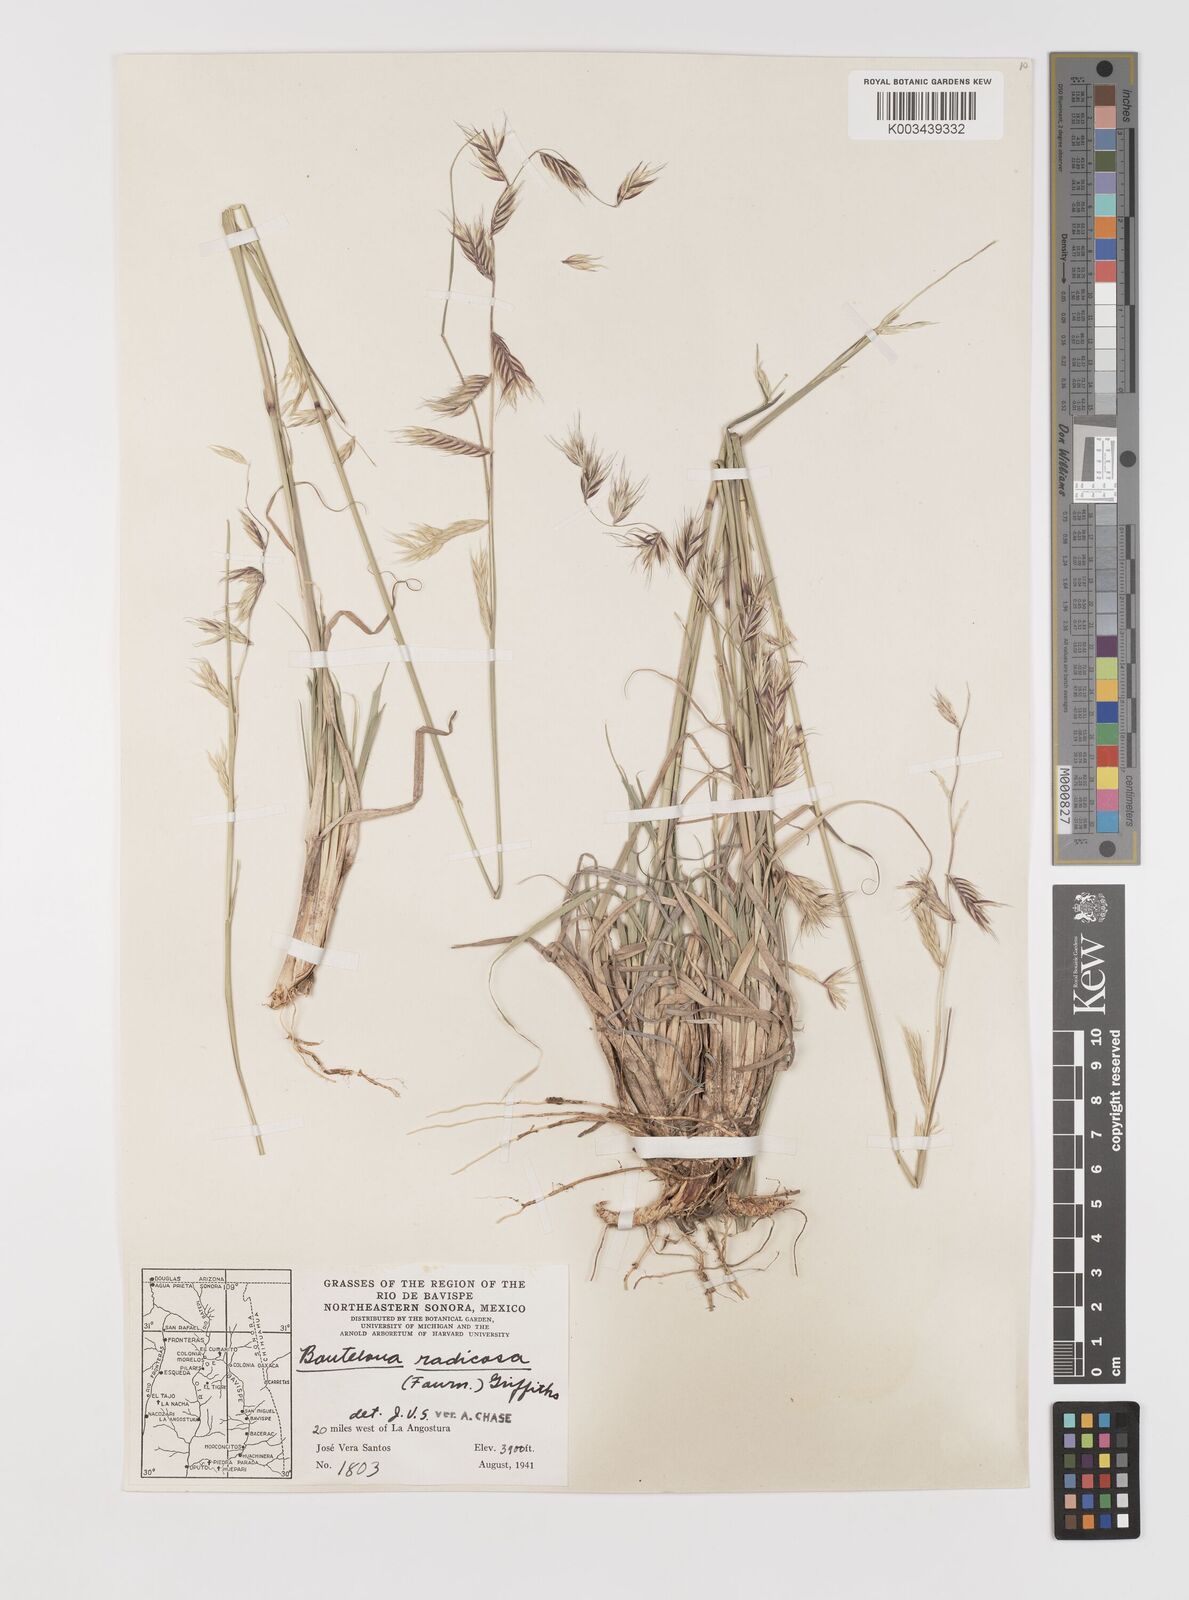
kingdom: Plantae
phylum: Tracheophyta
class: Liliopsida
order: Poales
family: Poaceae
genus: Bouteloua
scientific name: Bouteloua radicosa
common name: Purple grama
